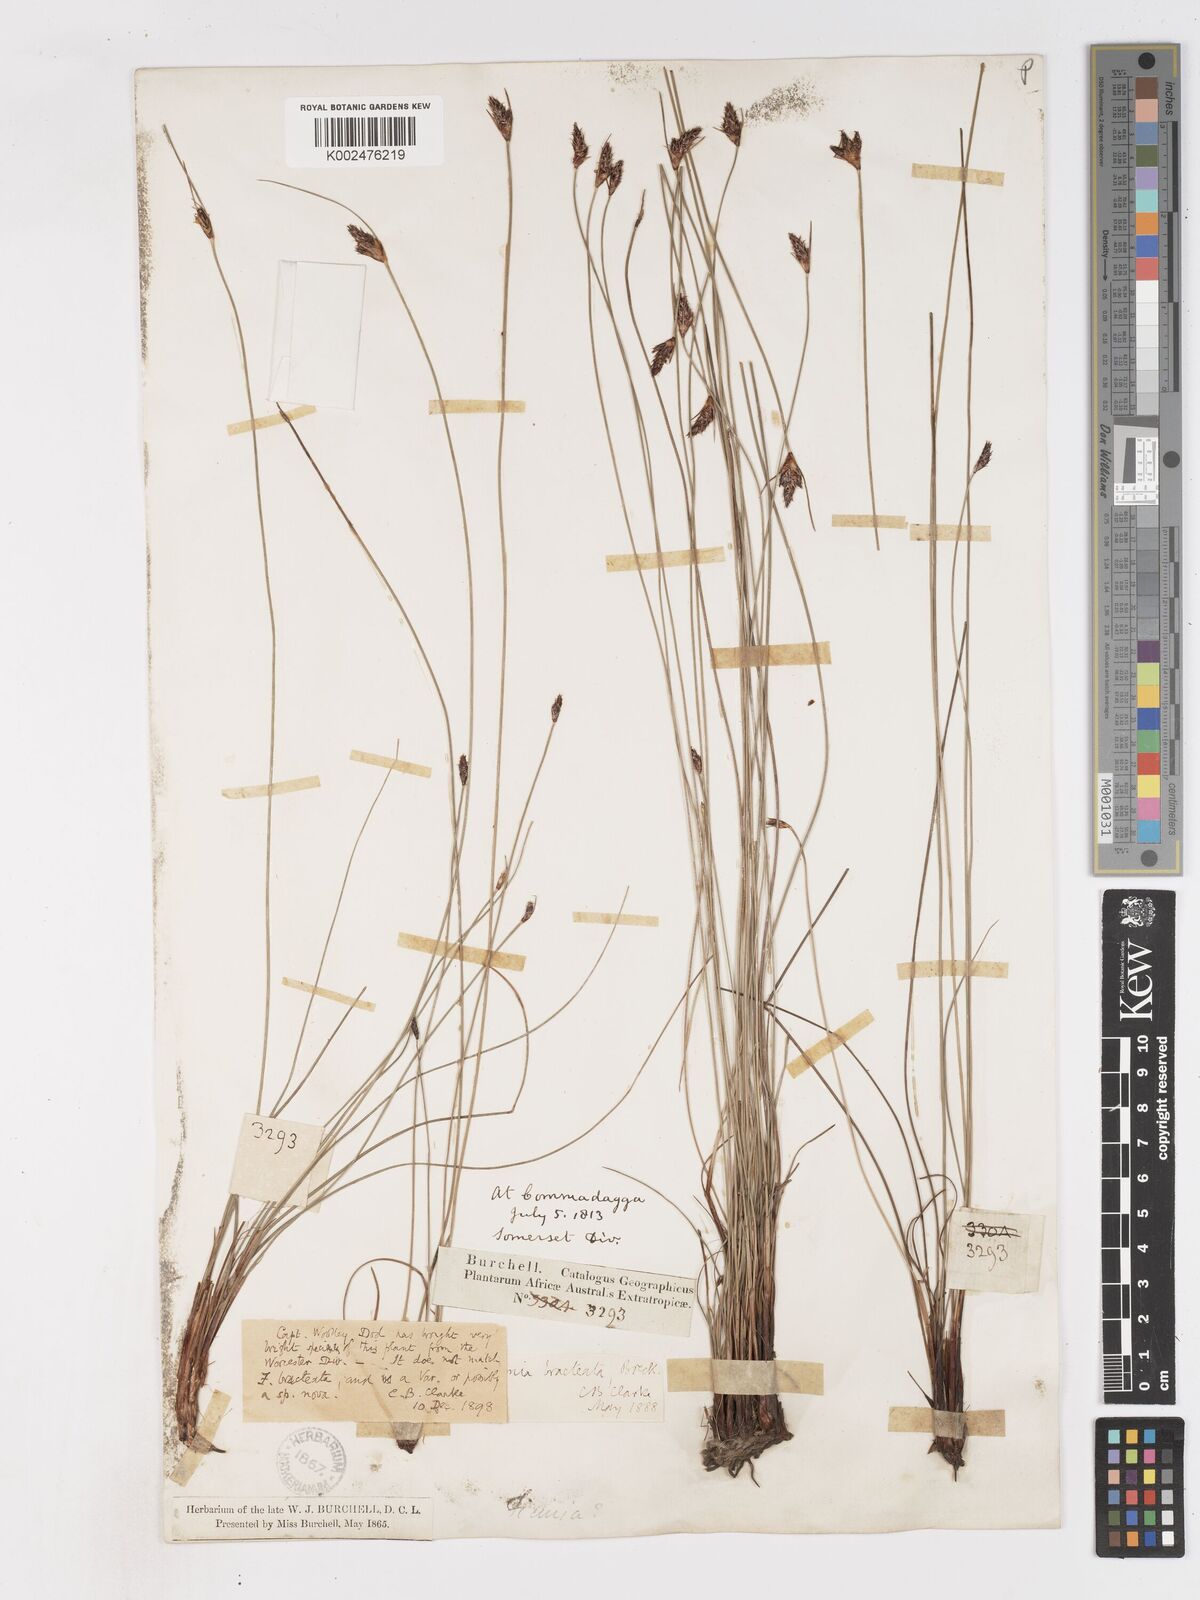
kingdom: Plantae
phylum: Tracheophyta
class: Liliopsida
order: Poales
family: Cyperaceae
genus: Ficinia
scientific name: Ficinia nigrescens
